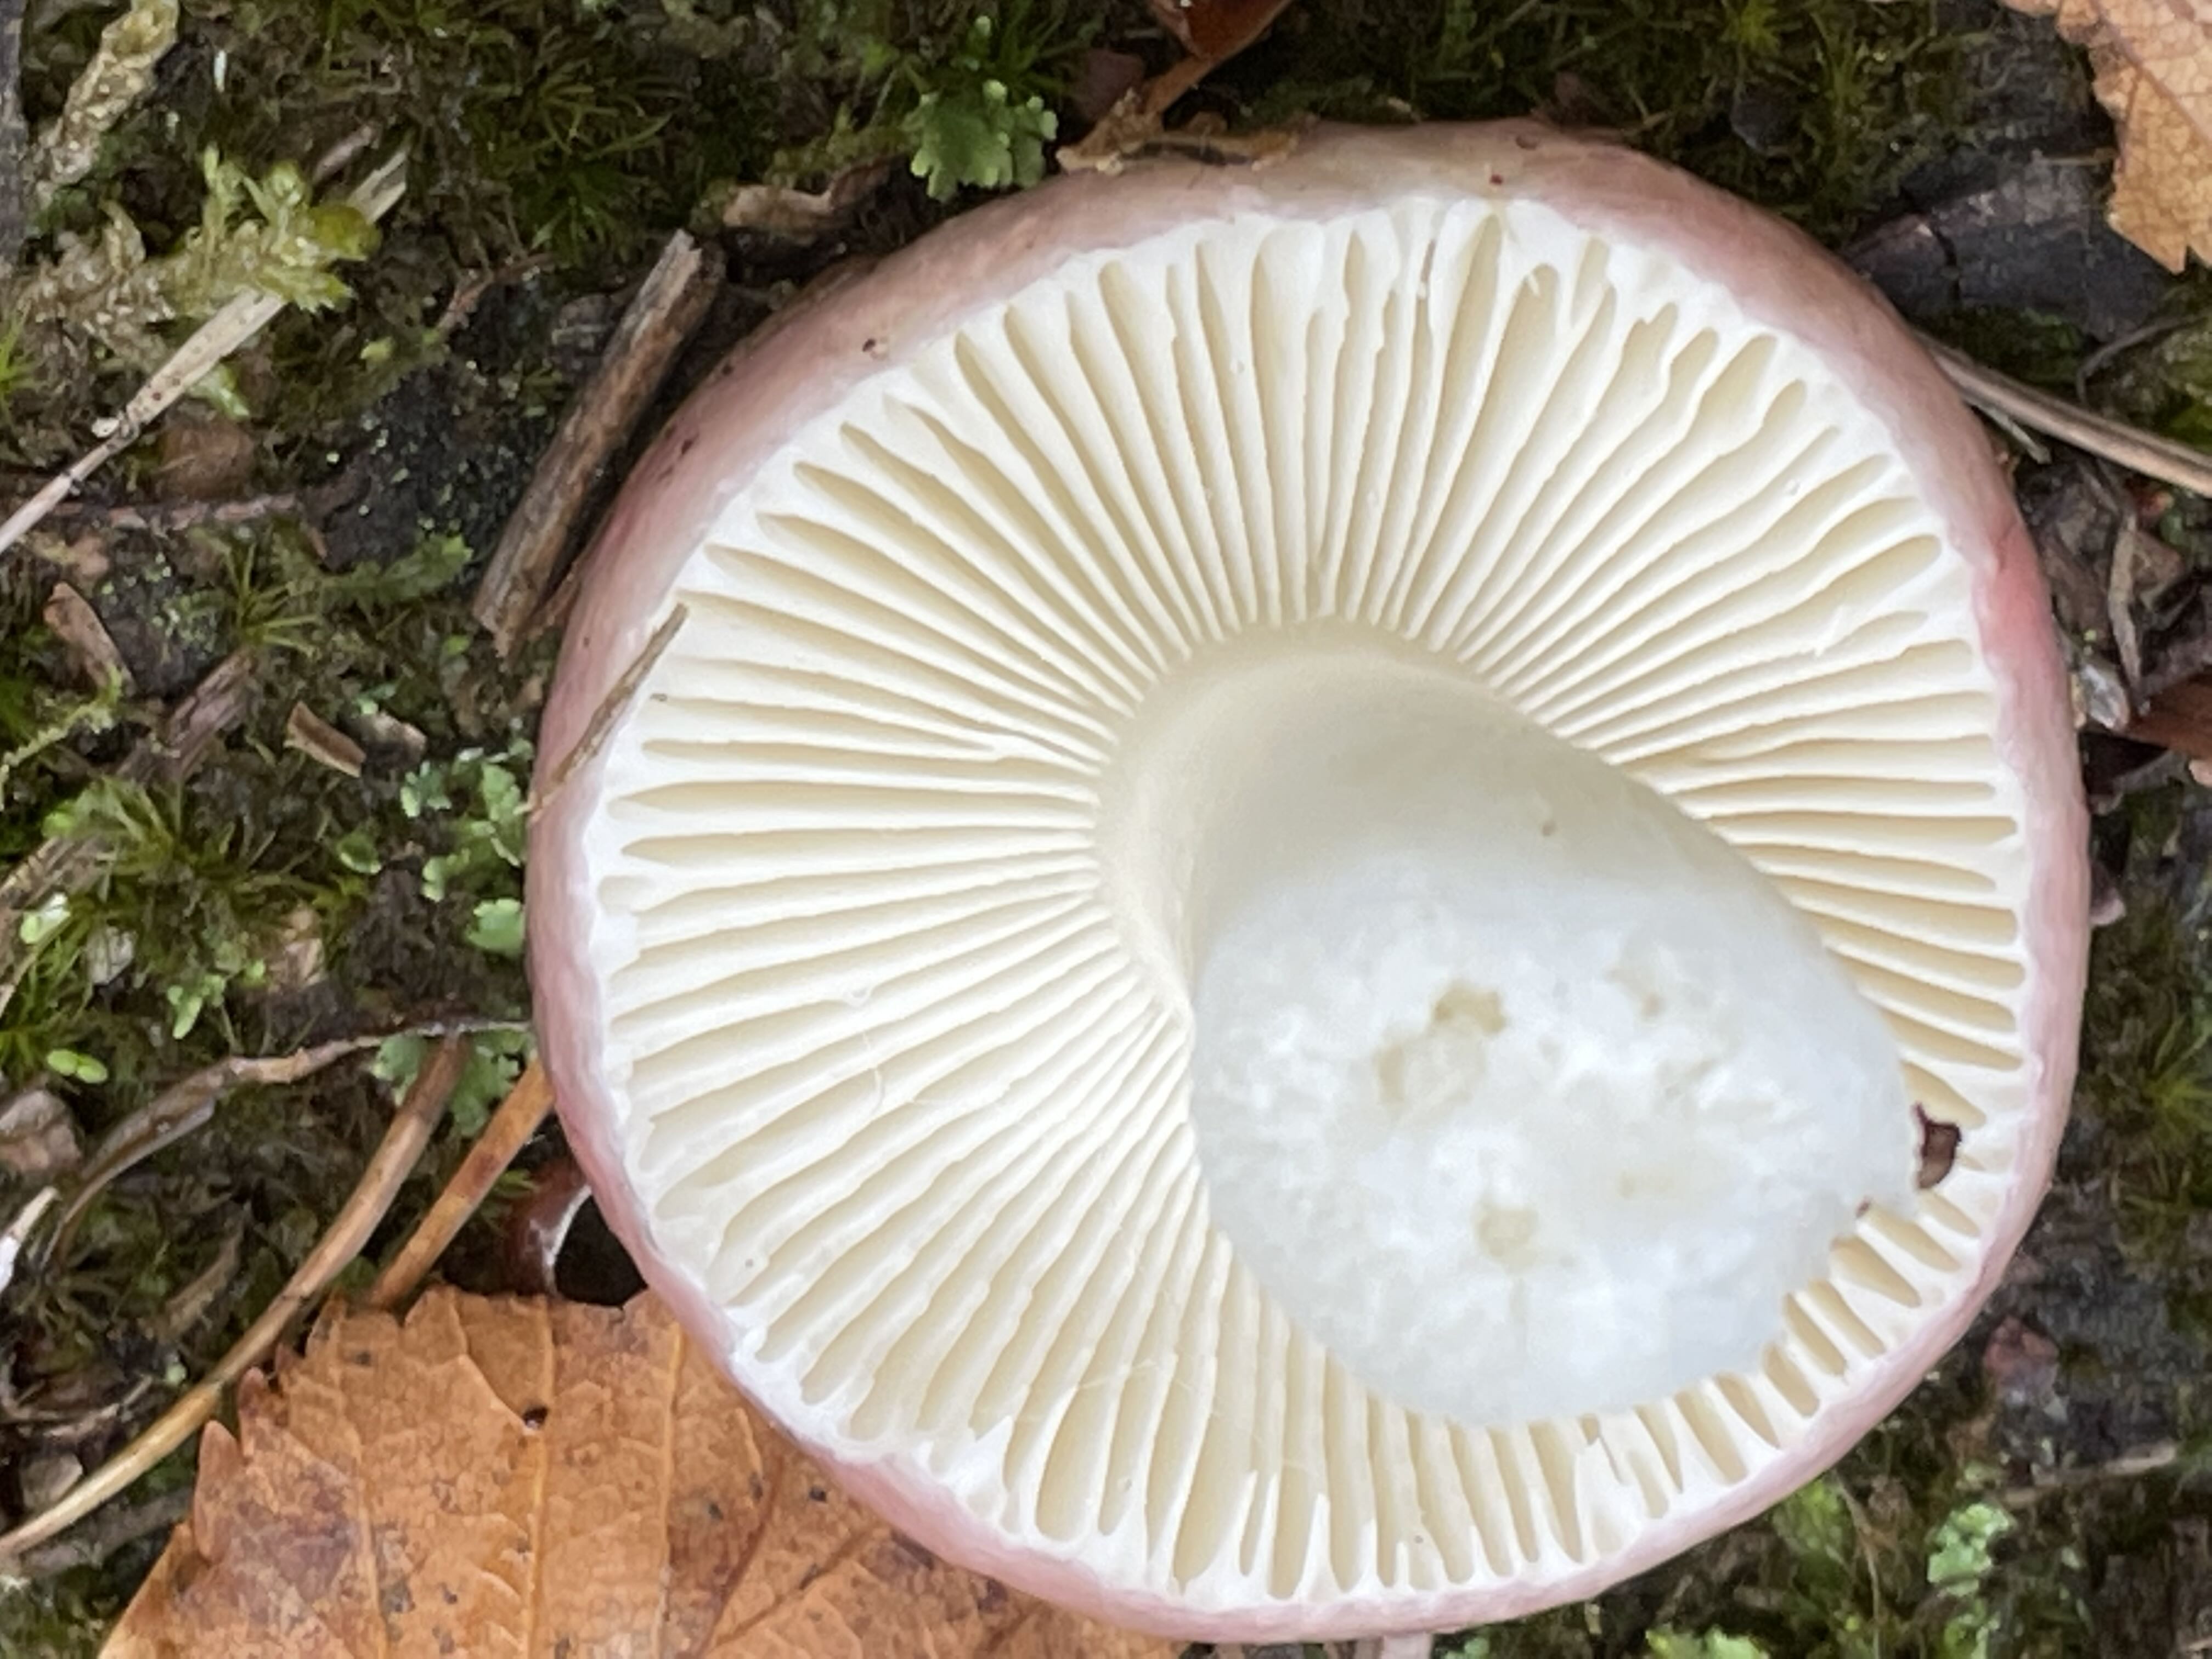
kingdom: Fungi
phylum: Basidiomycota
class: Agaricomycetes
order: Russulales
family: Russulaceae
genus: Russula
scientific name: Russula
